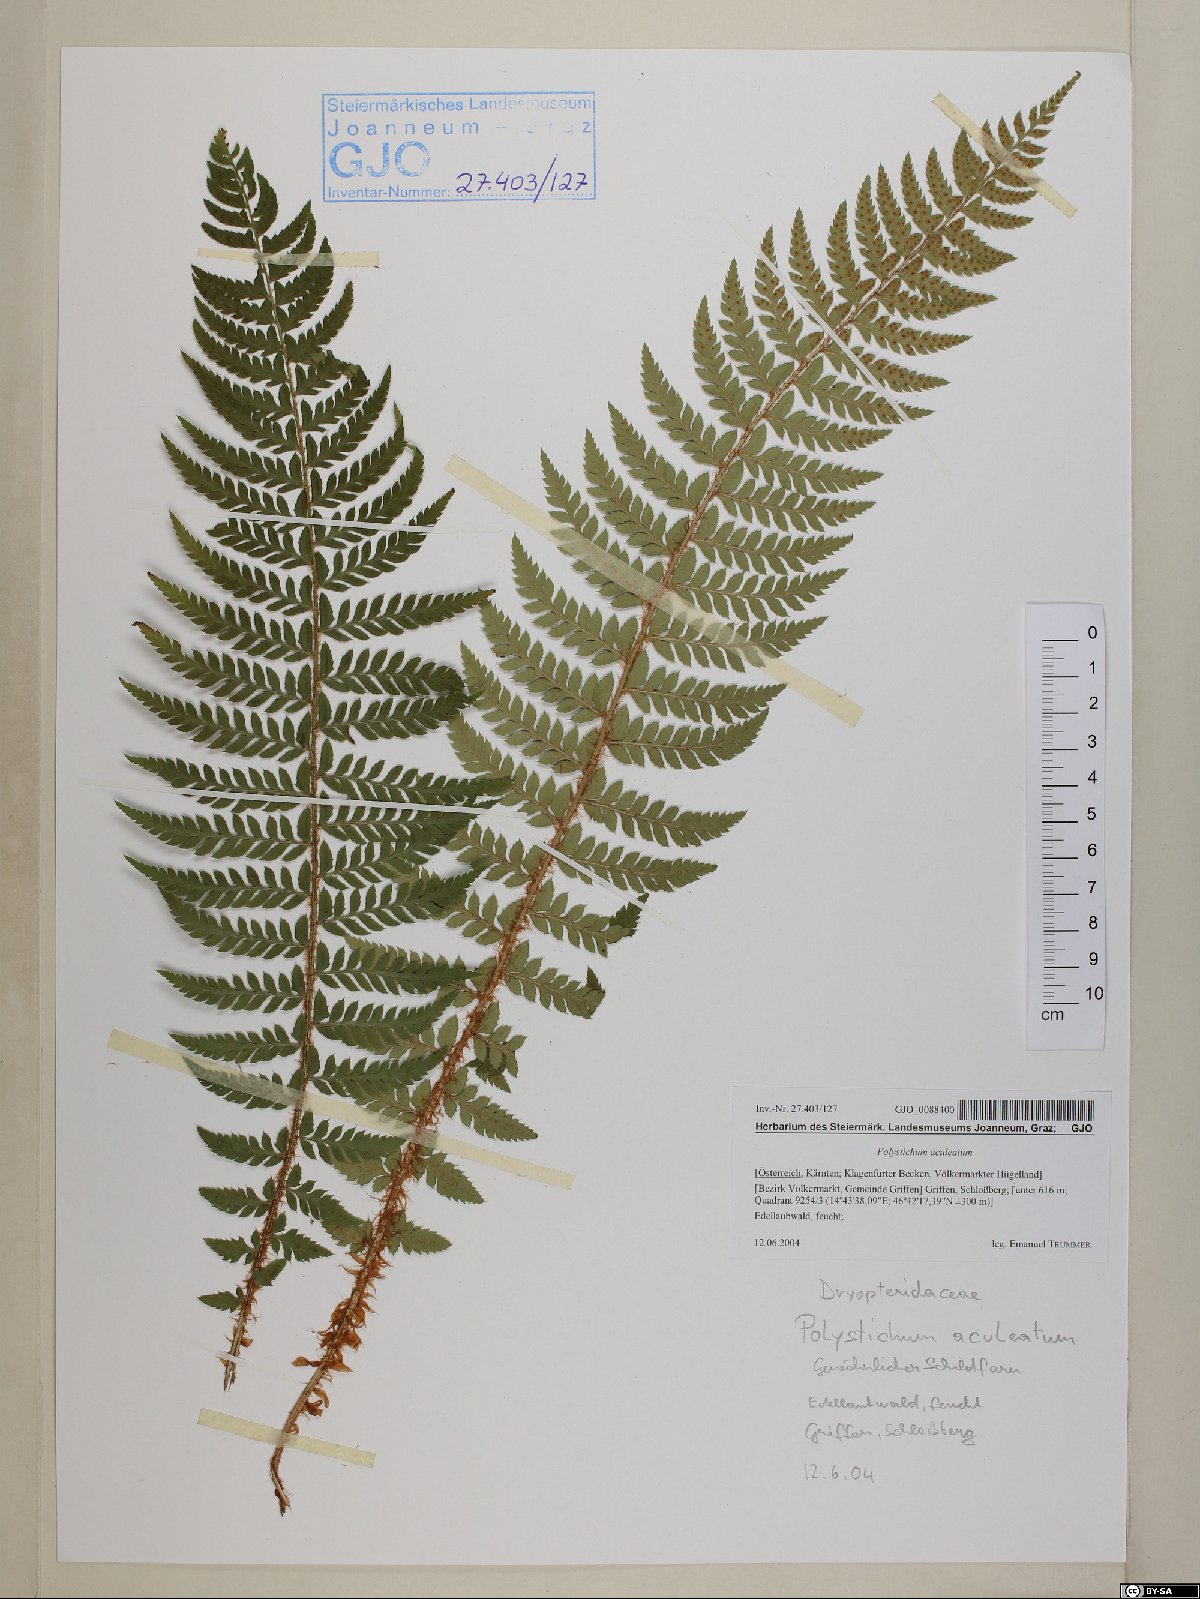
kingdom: Plantae
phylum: Tracheophyta
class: Polypodiopsida
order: Polypodiales
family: Dryopteridaceae
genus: Polystichum
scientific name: Polystichum aculeatum
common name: Hard shield-fern
